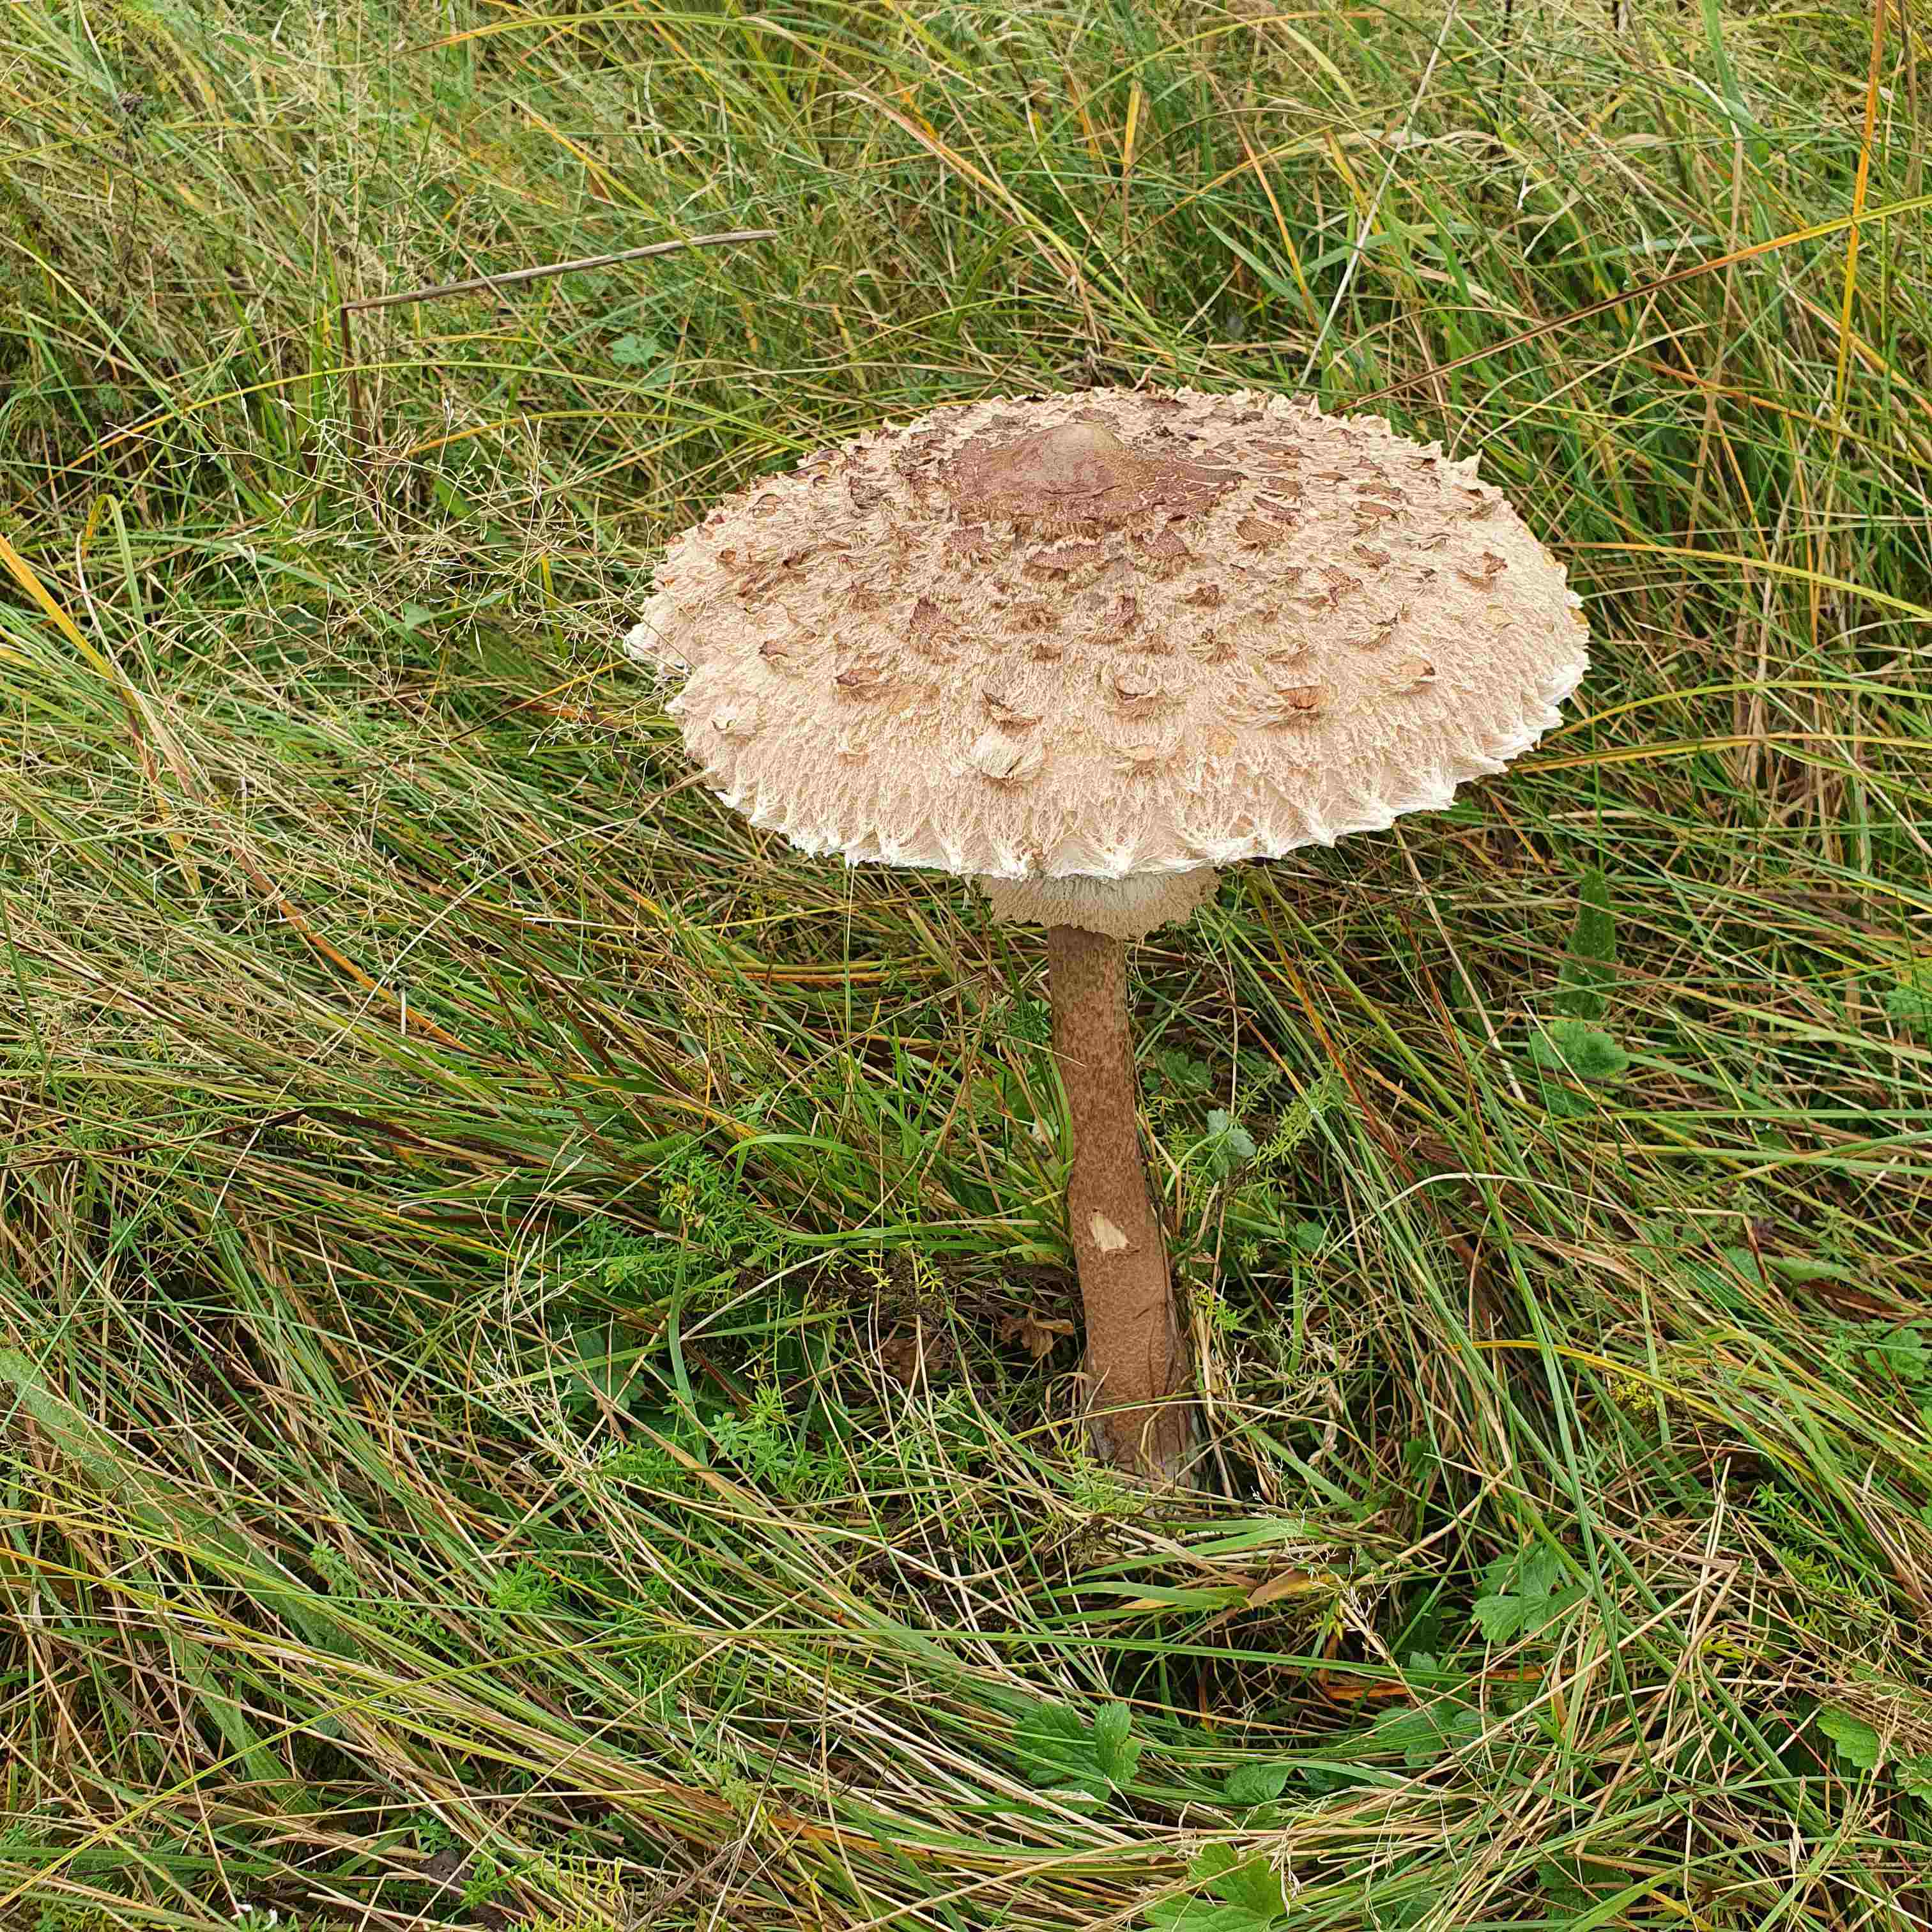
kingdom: Fungi
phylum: Basidiomycota
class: Agaricomycetes
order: Agaricales
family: Agaricaceae
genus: Macrolepiota
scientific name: Macrolepiota procera
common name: stor kæmpeparasolhat
